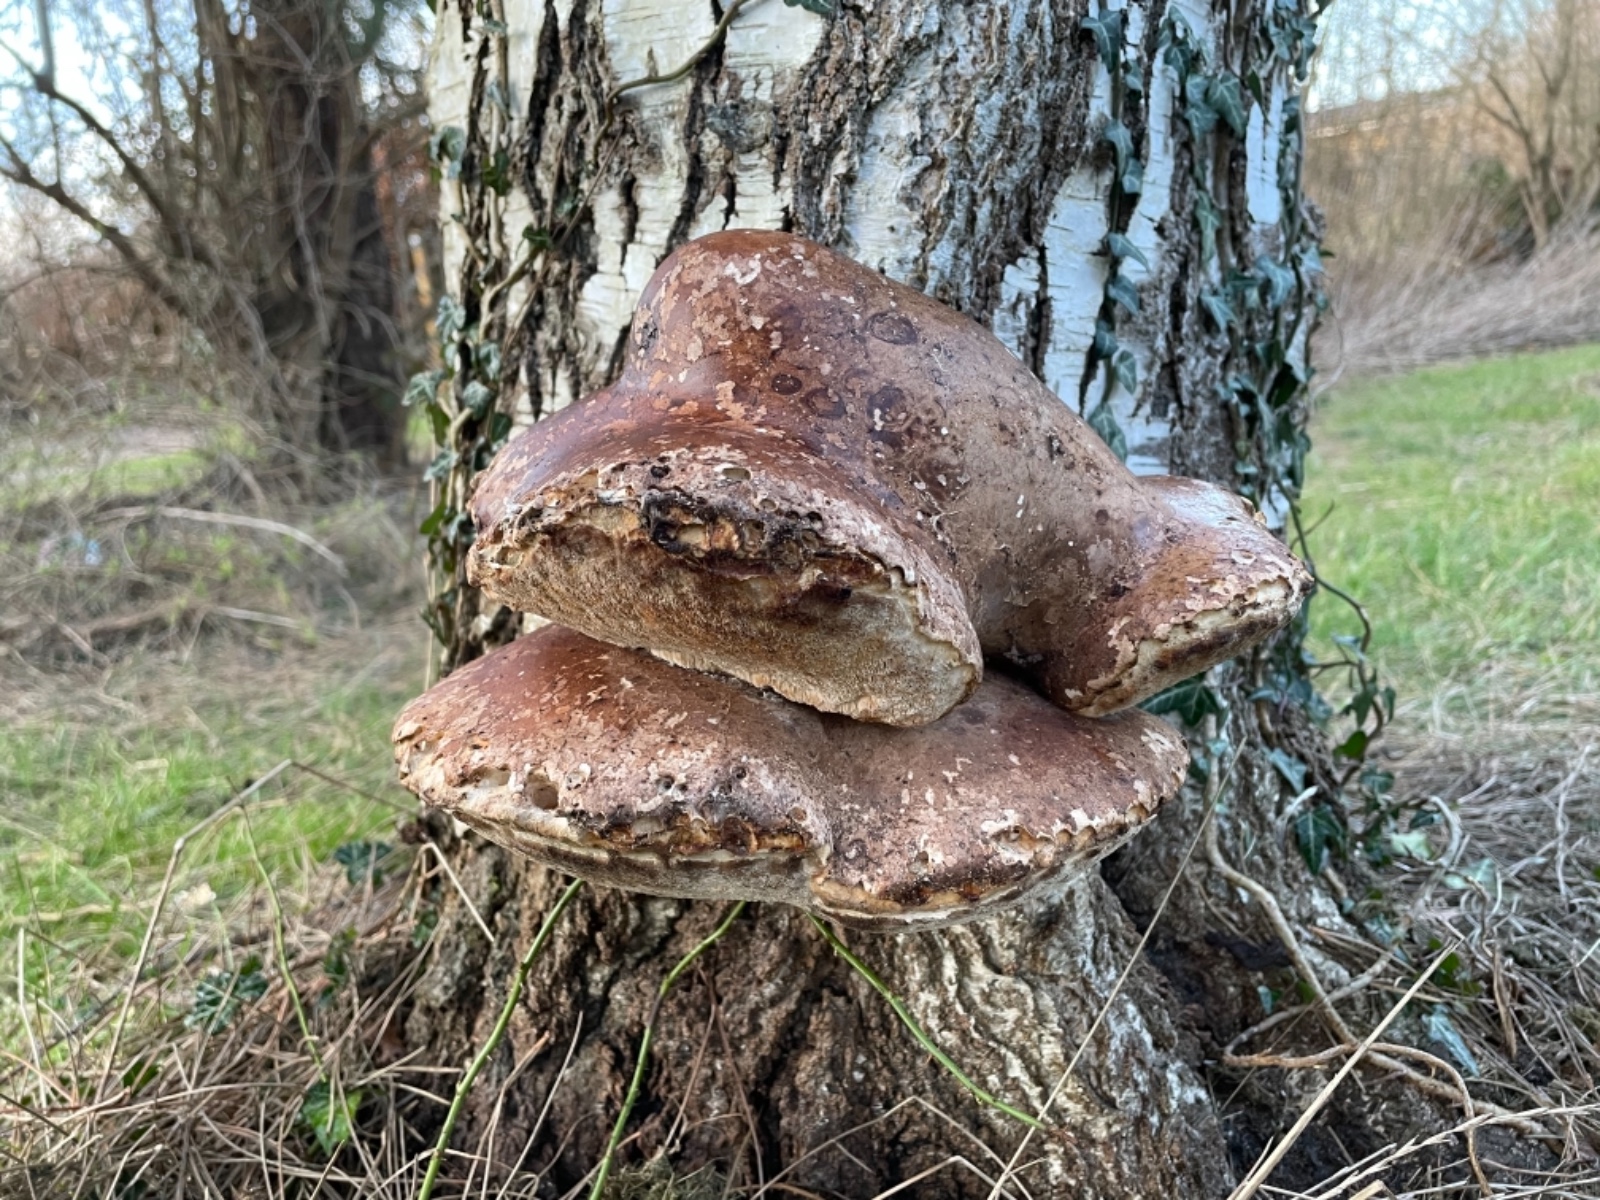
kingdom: Fungi
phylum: Basidiomycota
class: Agaricomycetes
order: Polyporales
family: Fomitopsidaceae
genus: Fomitopsis
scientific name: Fomitopsis betulina
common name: birkeporesvamp
